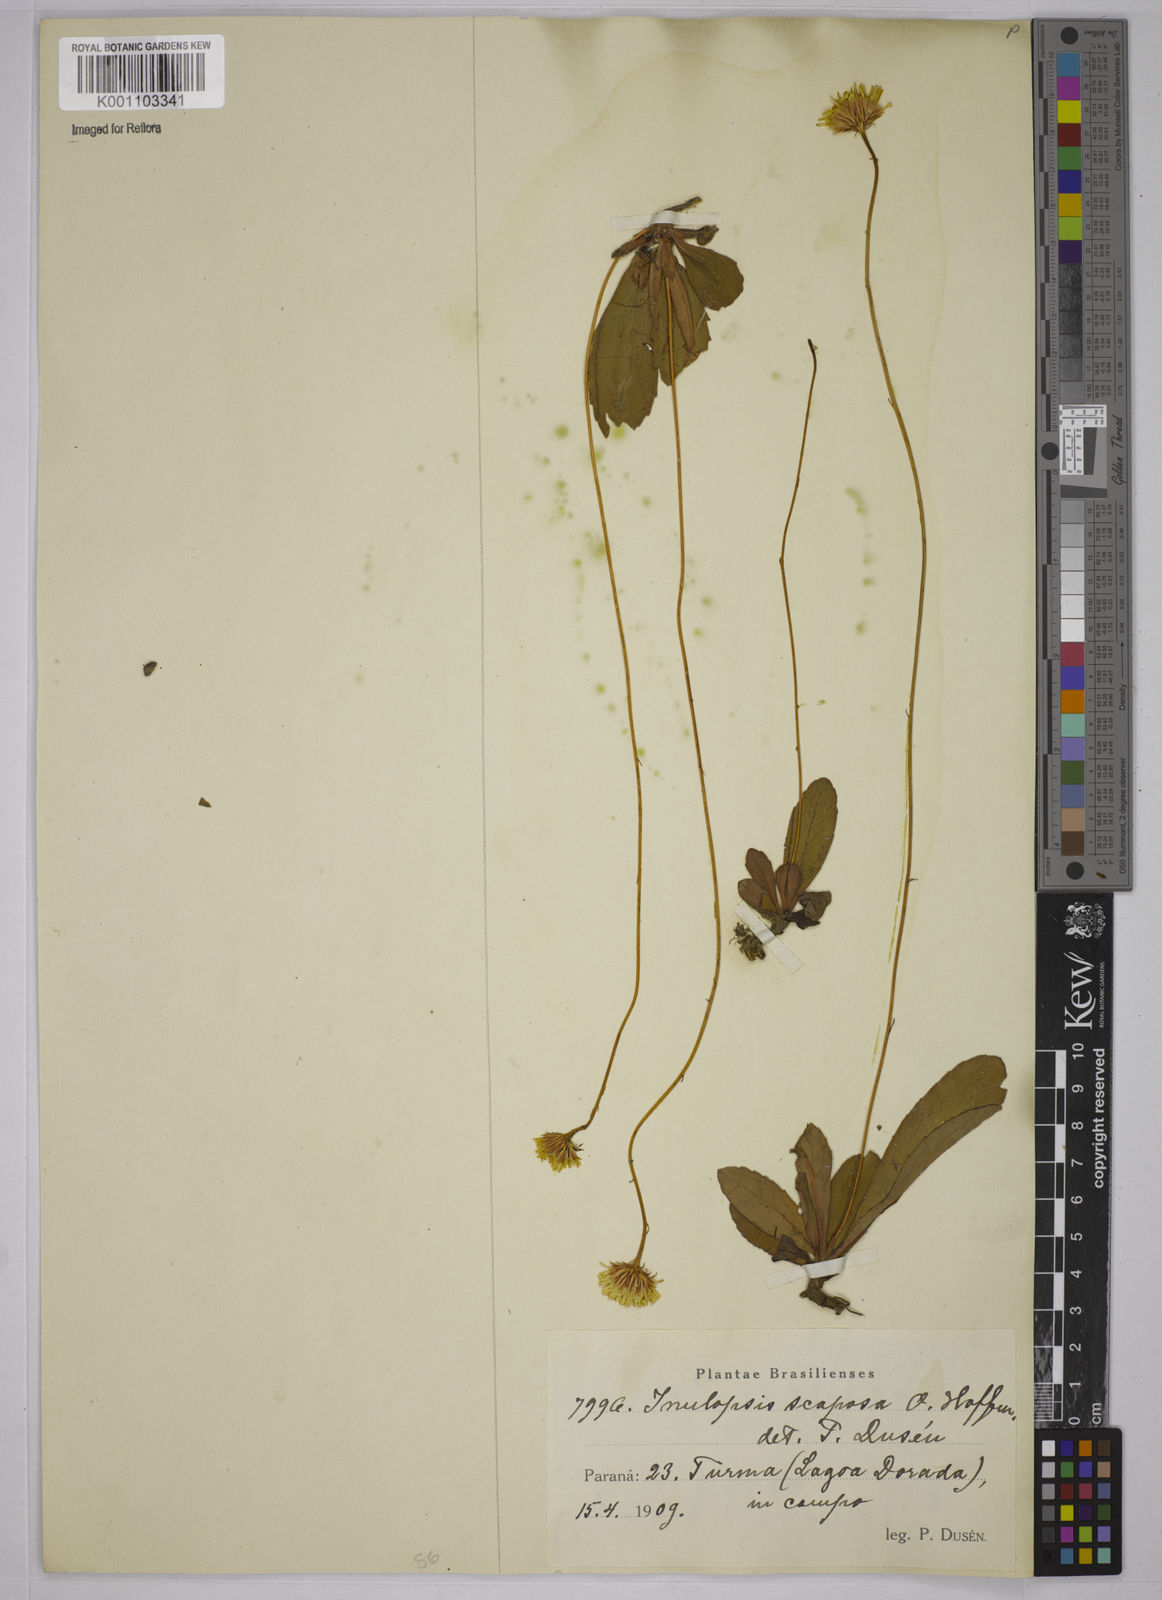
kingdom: Plantae
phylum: Tracheophyta
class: Magnoliopsida
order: Asterales
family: Asteraceae
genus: Inulopsis
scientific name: Inulopsis scaposa
